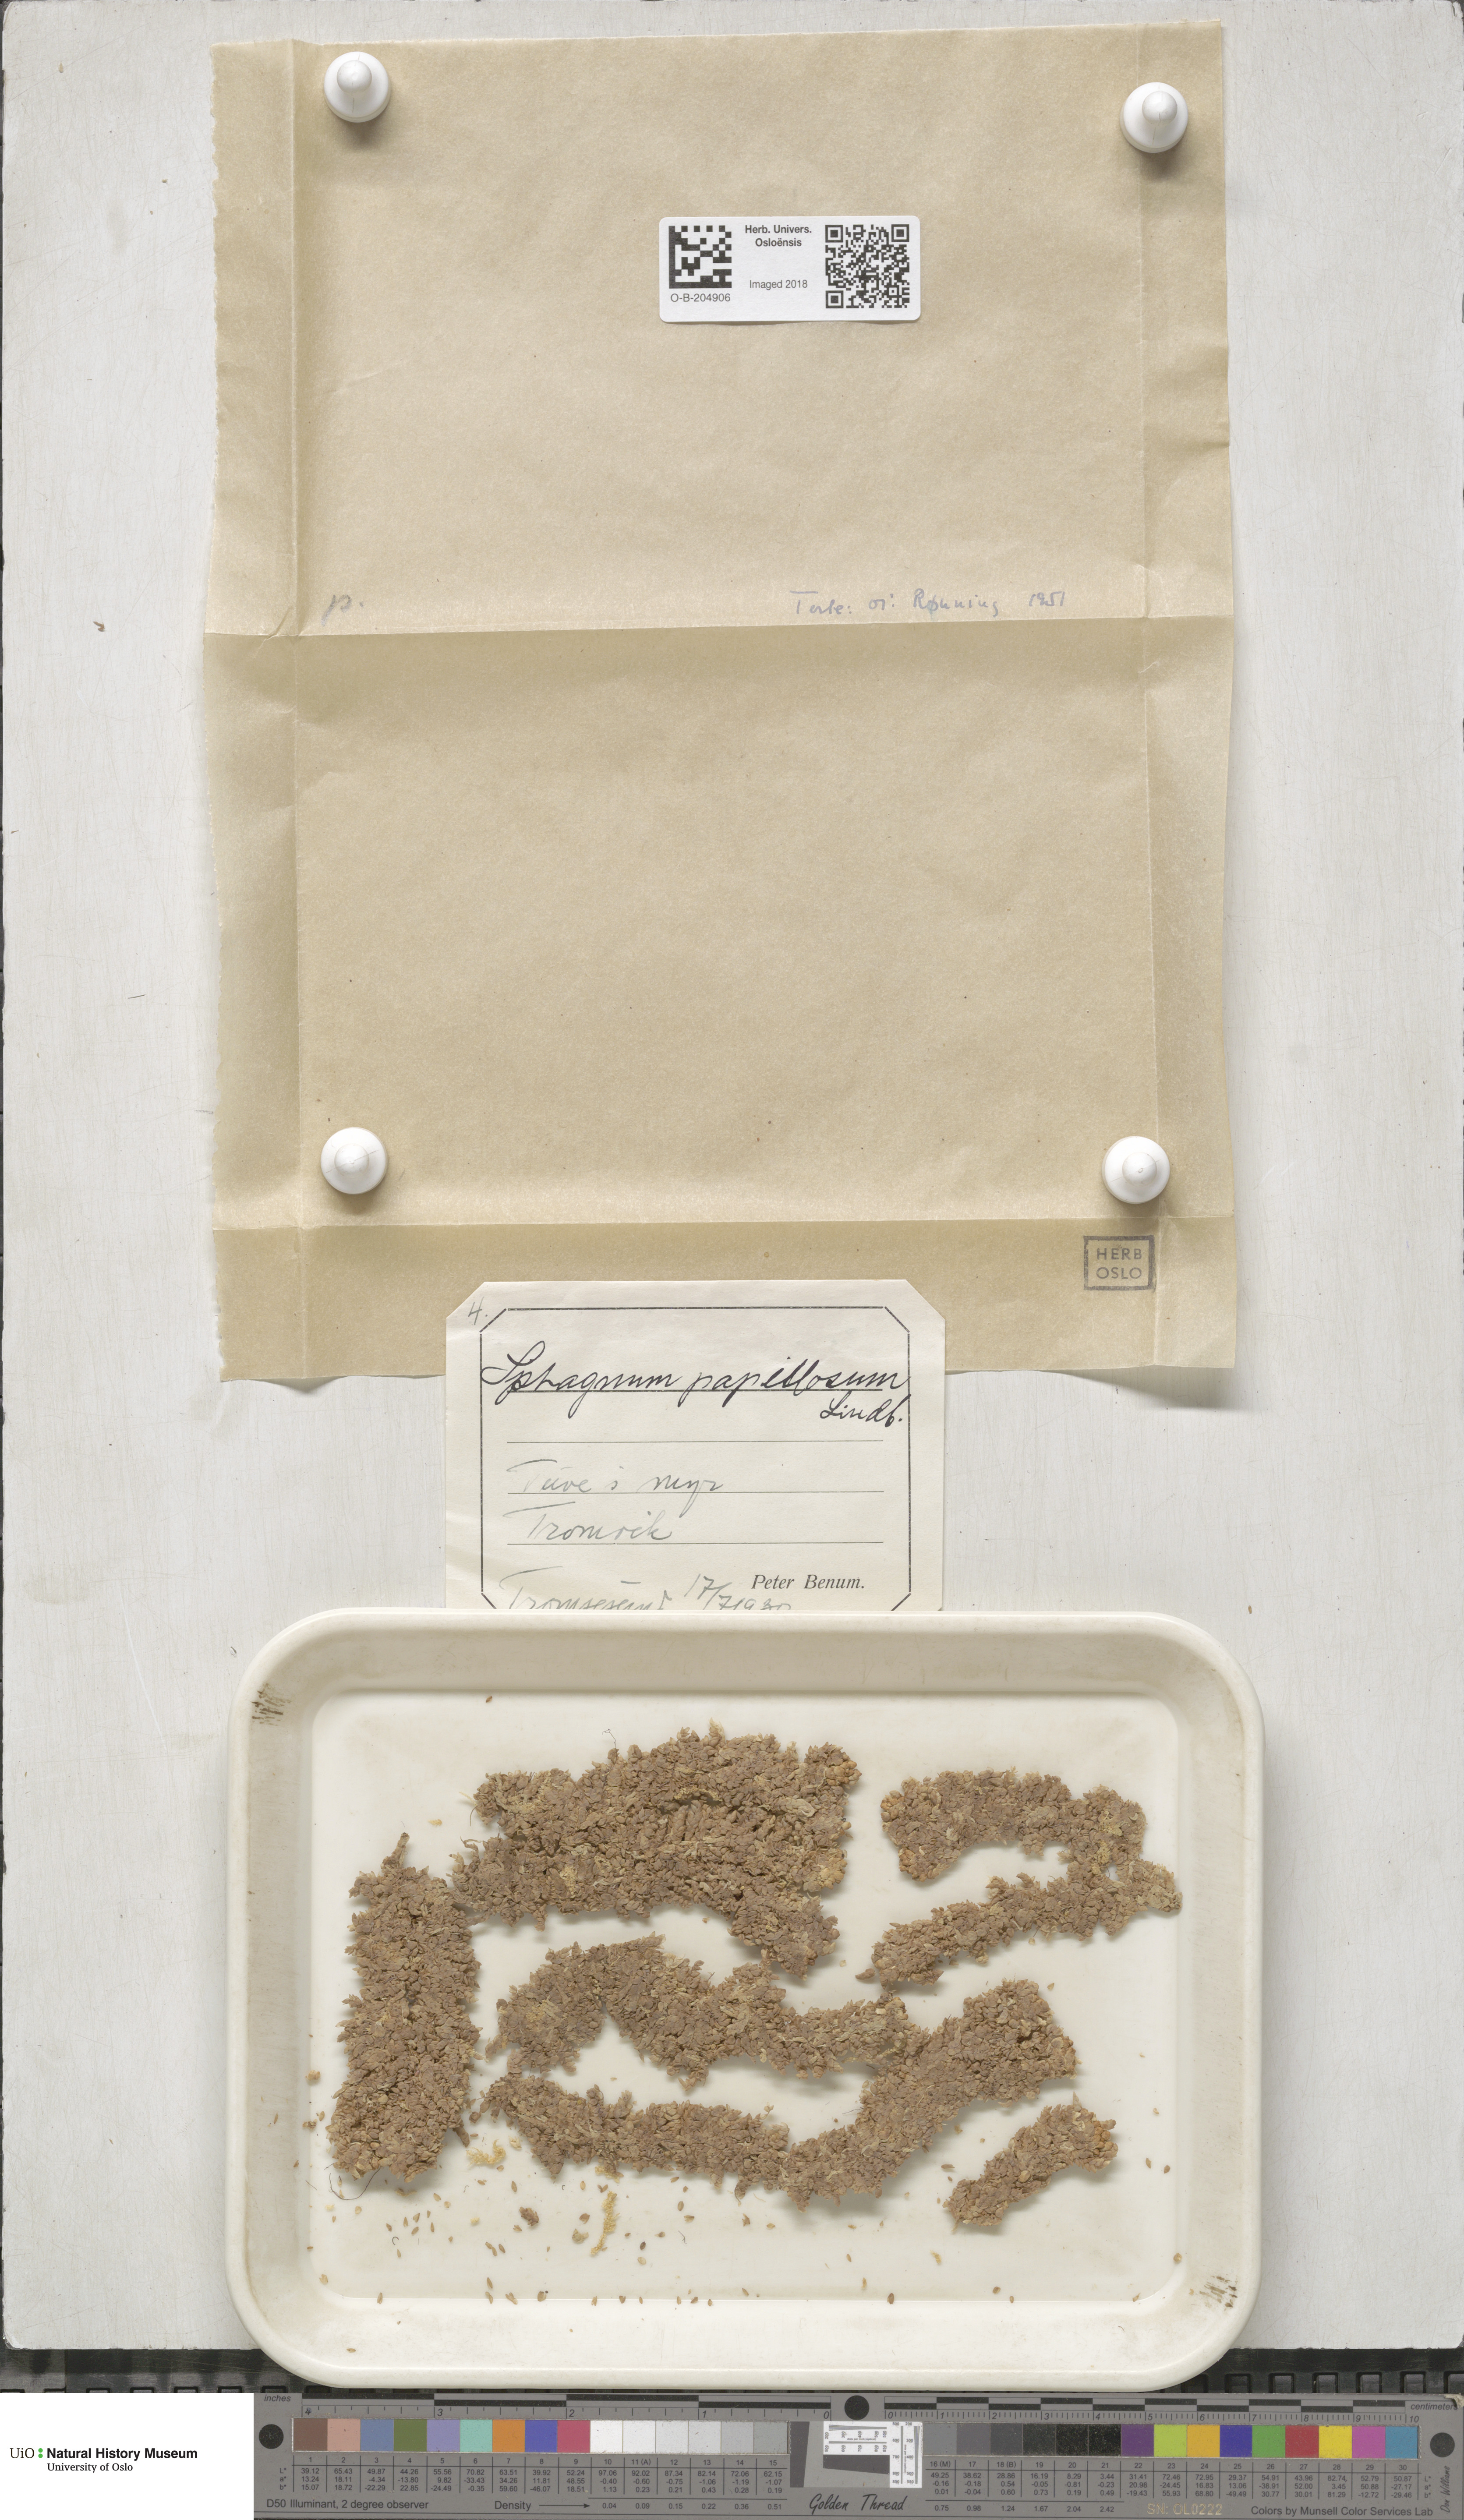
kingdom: Plantae
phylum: Bryophyta
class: Sphagnopsida
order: Sphagnales
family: Sphagnaceae
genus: Sphagnum
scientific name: Sphagnum papillosum
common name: Papillose peat moss
